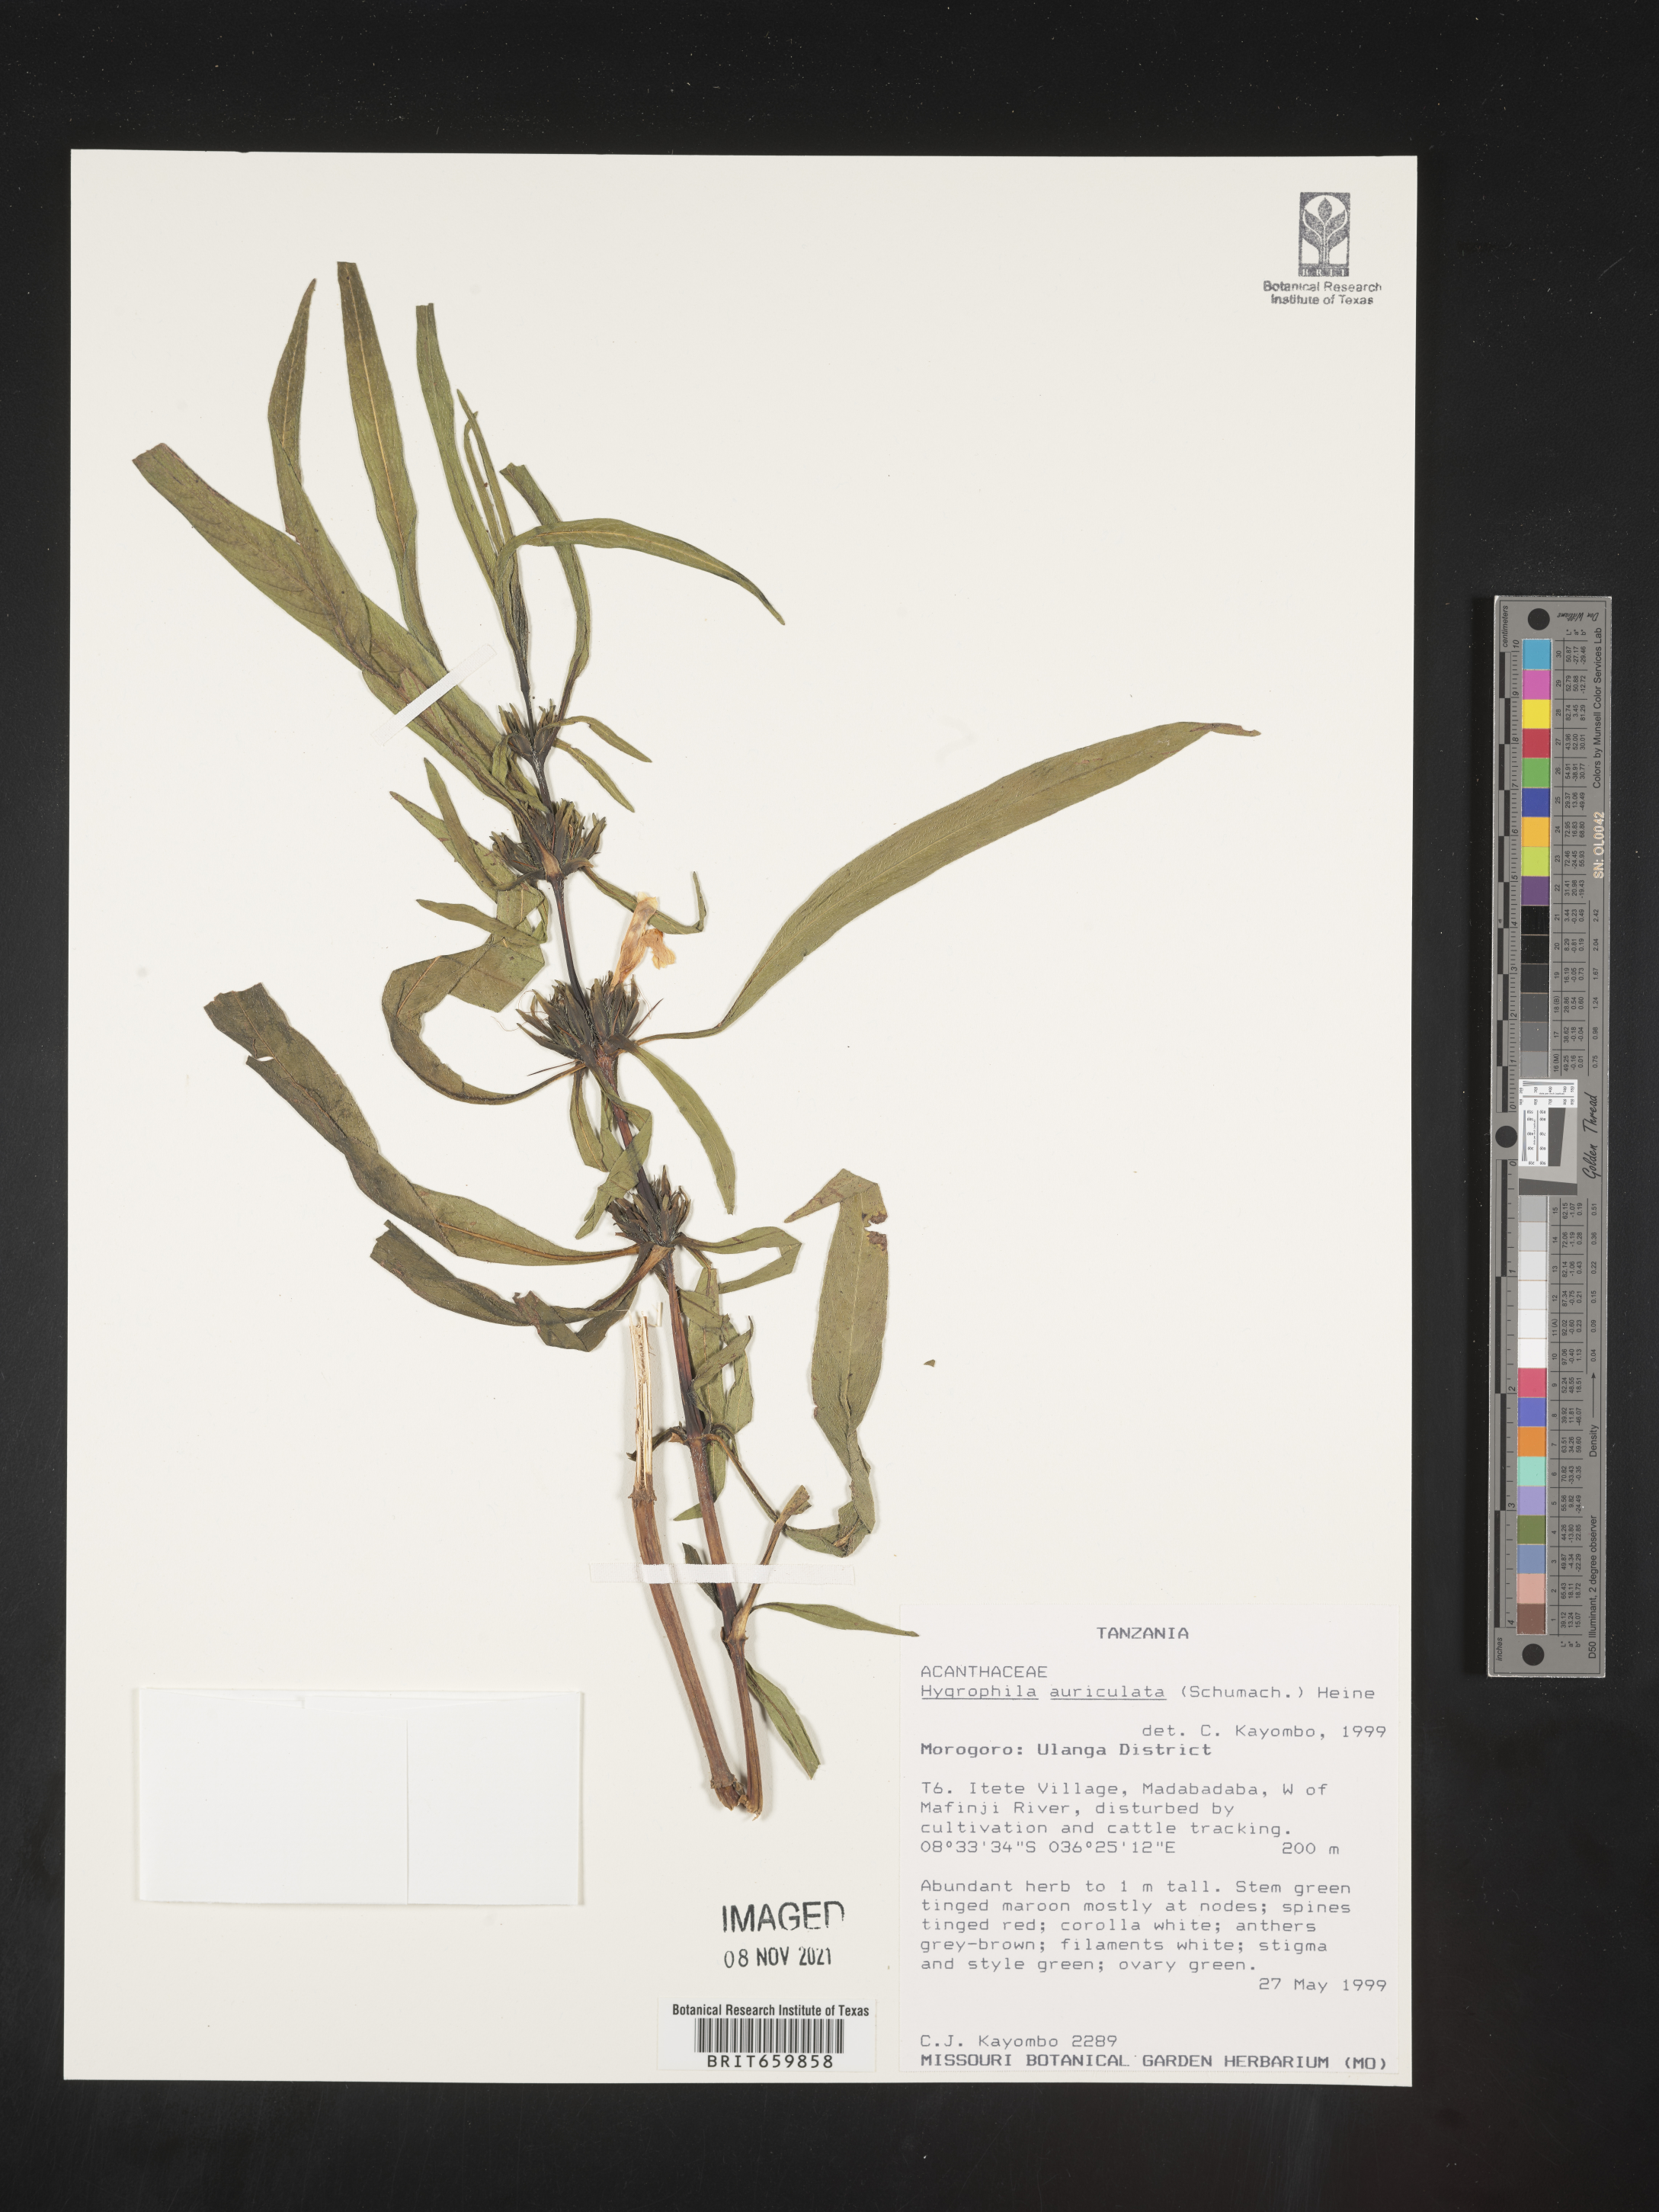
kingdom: Plantae
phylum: Tracheophyta
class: Magnoliopsida
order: Lamiales
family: Acanthaceae
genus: Hygrophila
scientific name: Hygrophila auriculata
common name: Hygrophila
